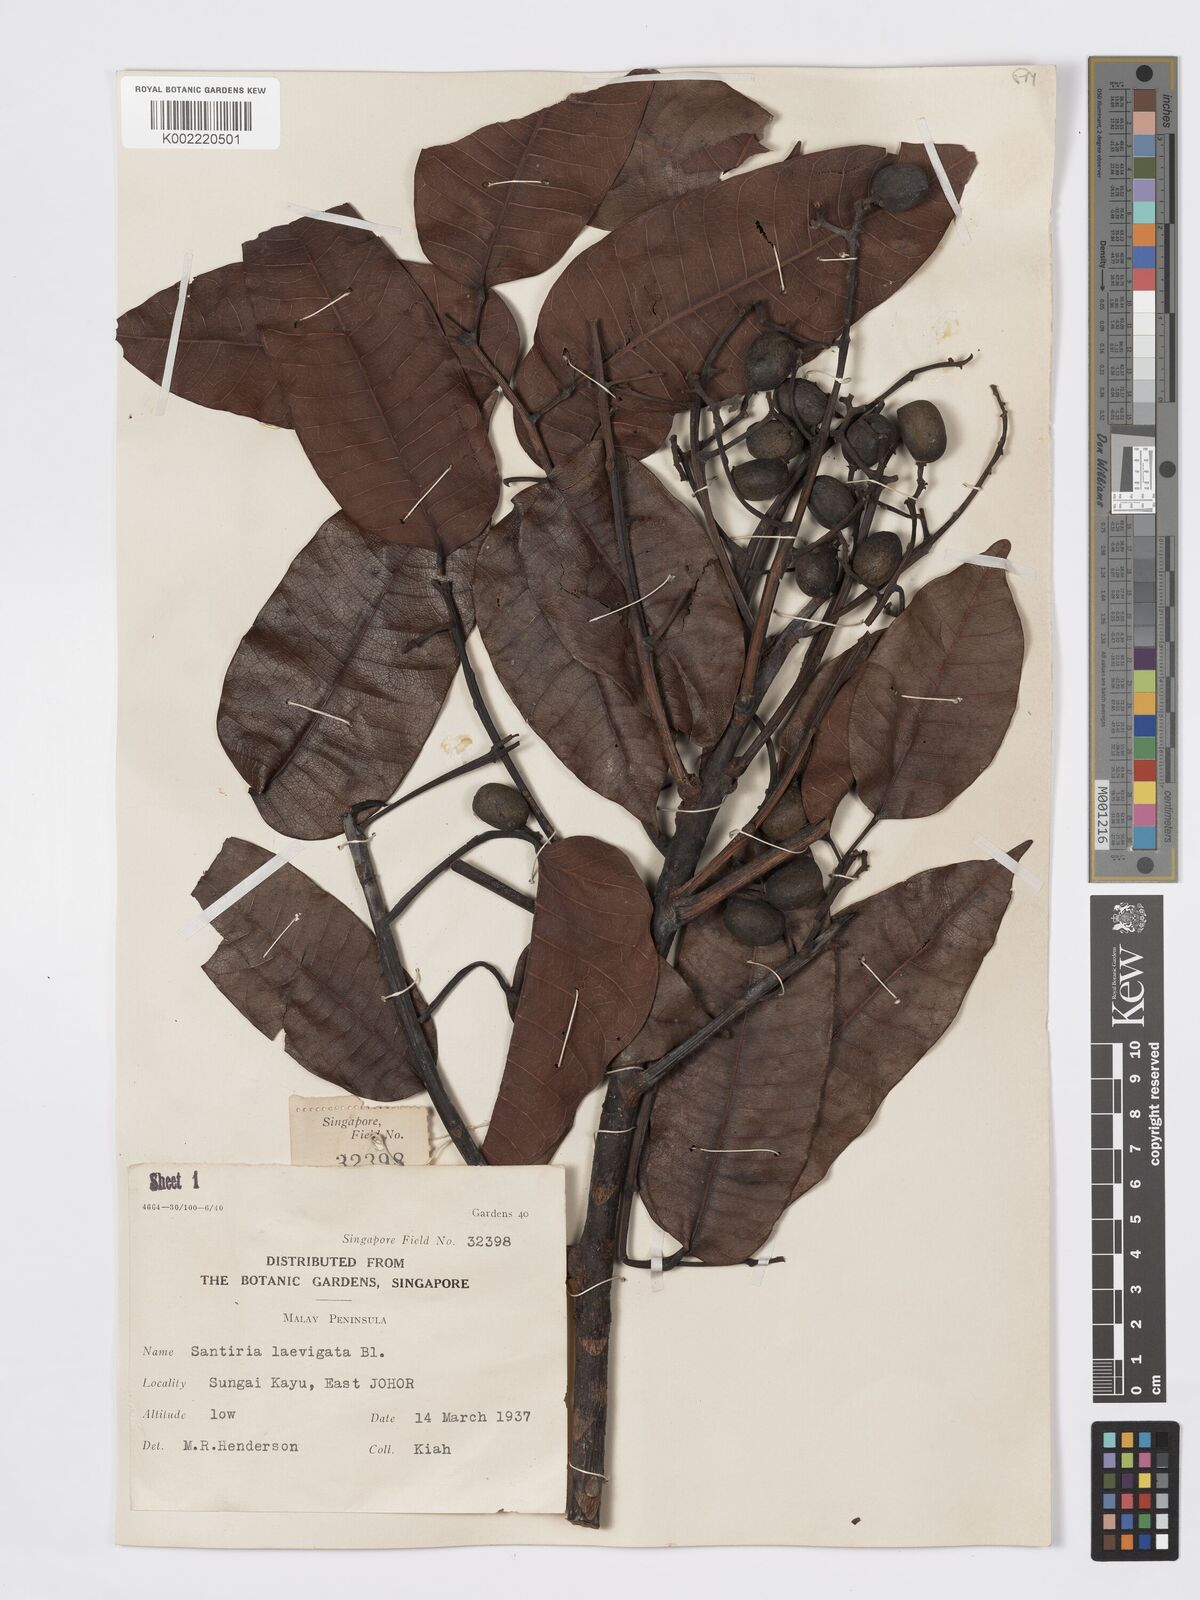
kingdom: Plantae
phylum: Tracheophyta
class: Magnoliopsida
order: Sapindales
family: Burseraceae
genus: Santiria
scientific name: Santiria laevigata
